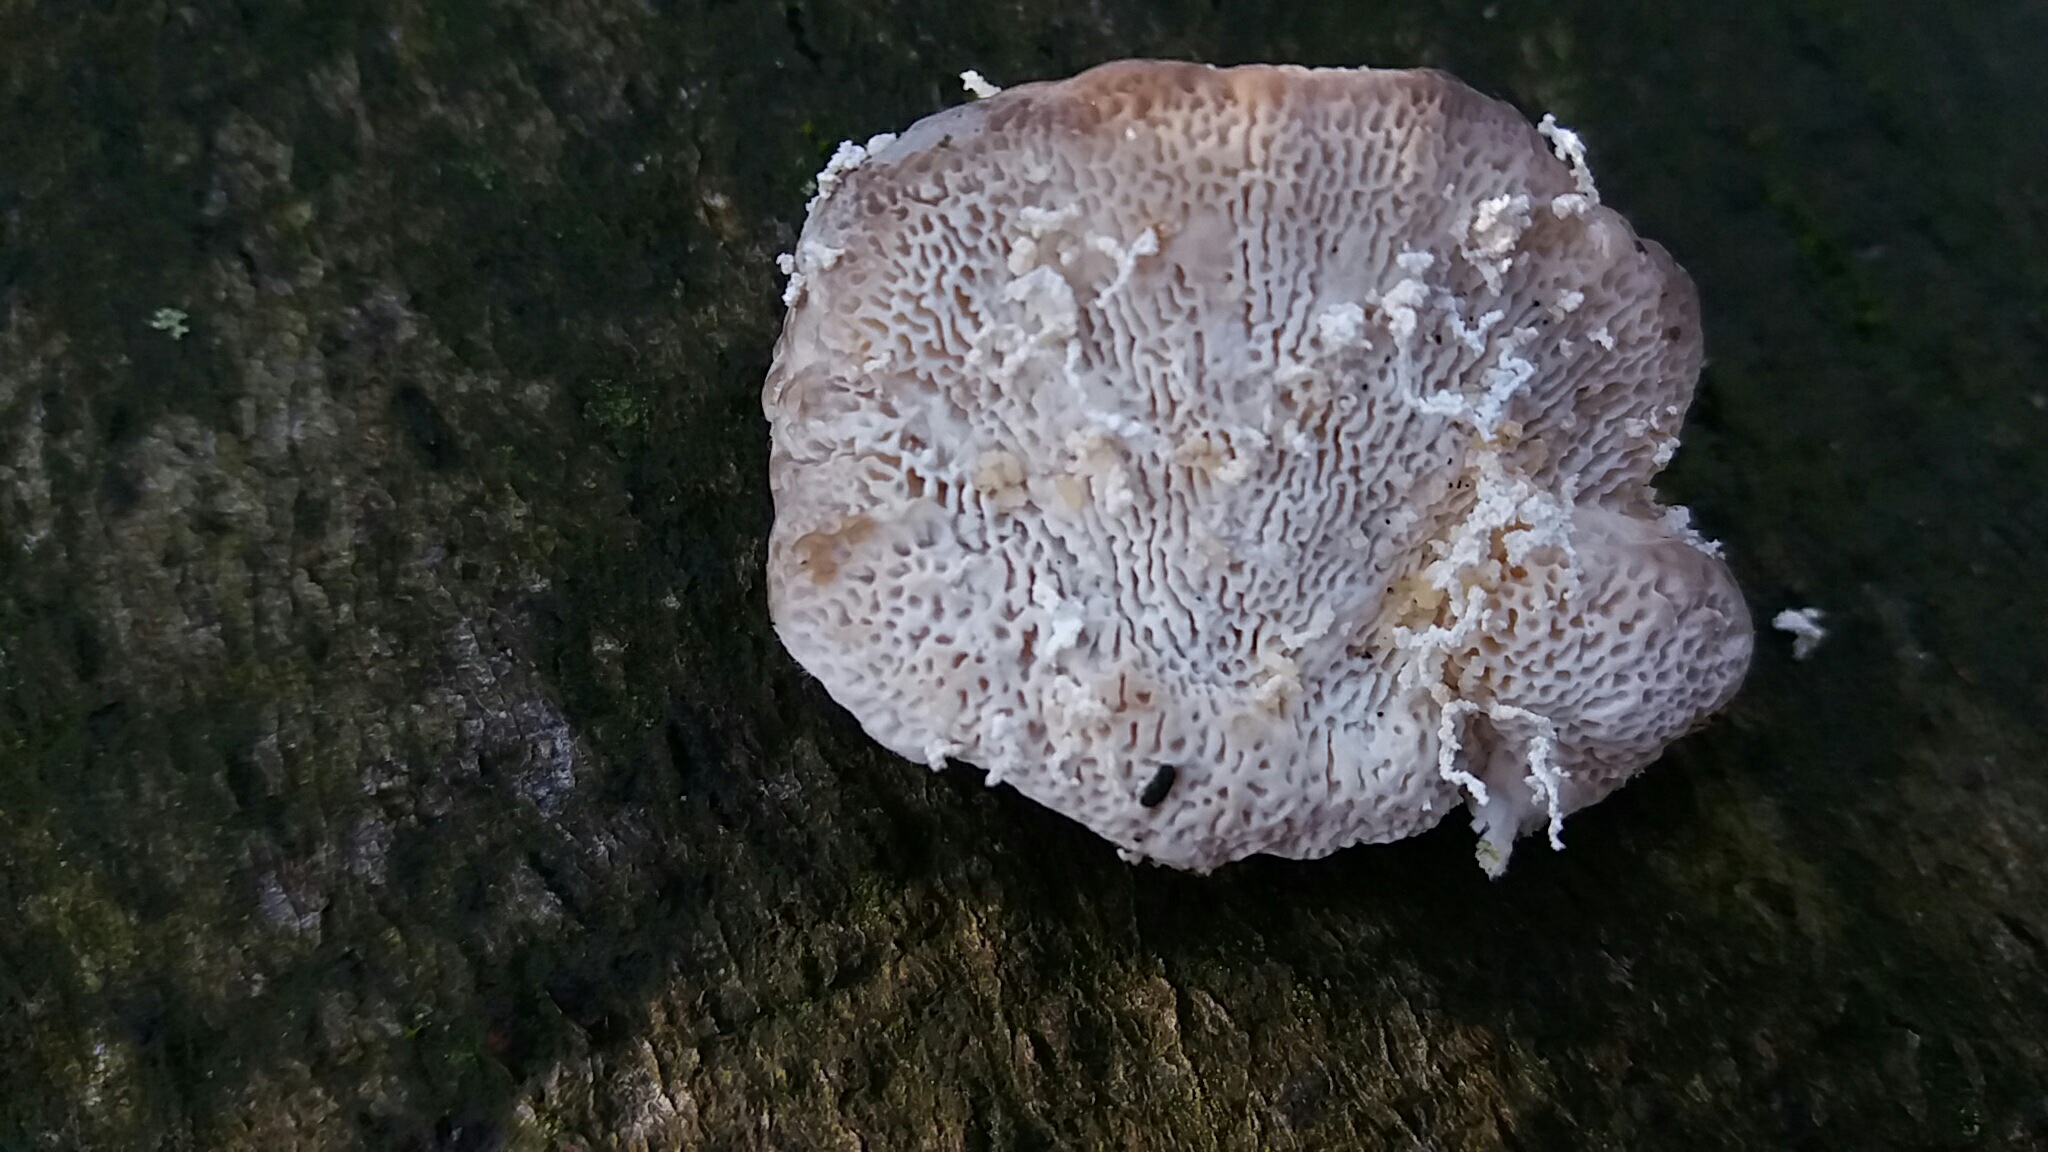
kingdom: Fungi
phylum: Basidiomycota
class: Agaricomycetes
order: Polyporales
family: Polyporaceae
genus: Trametes
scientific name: Trametes gibbosa
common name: puklet læderporesvamp
